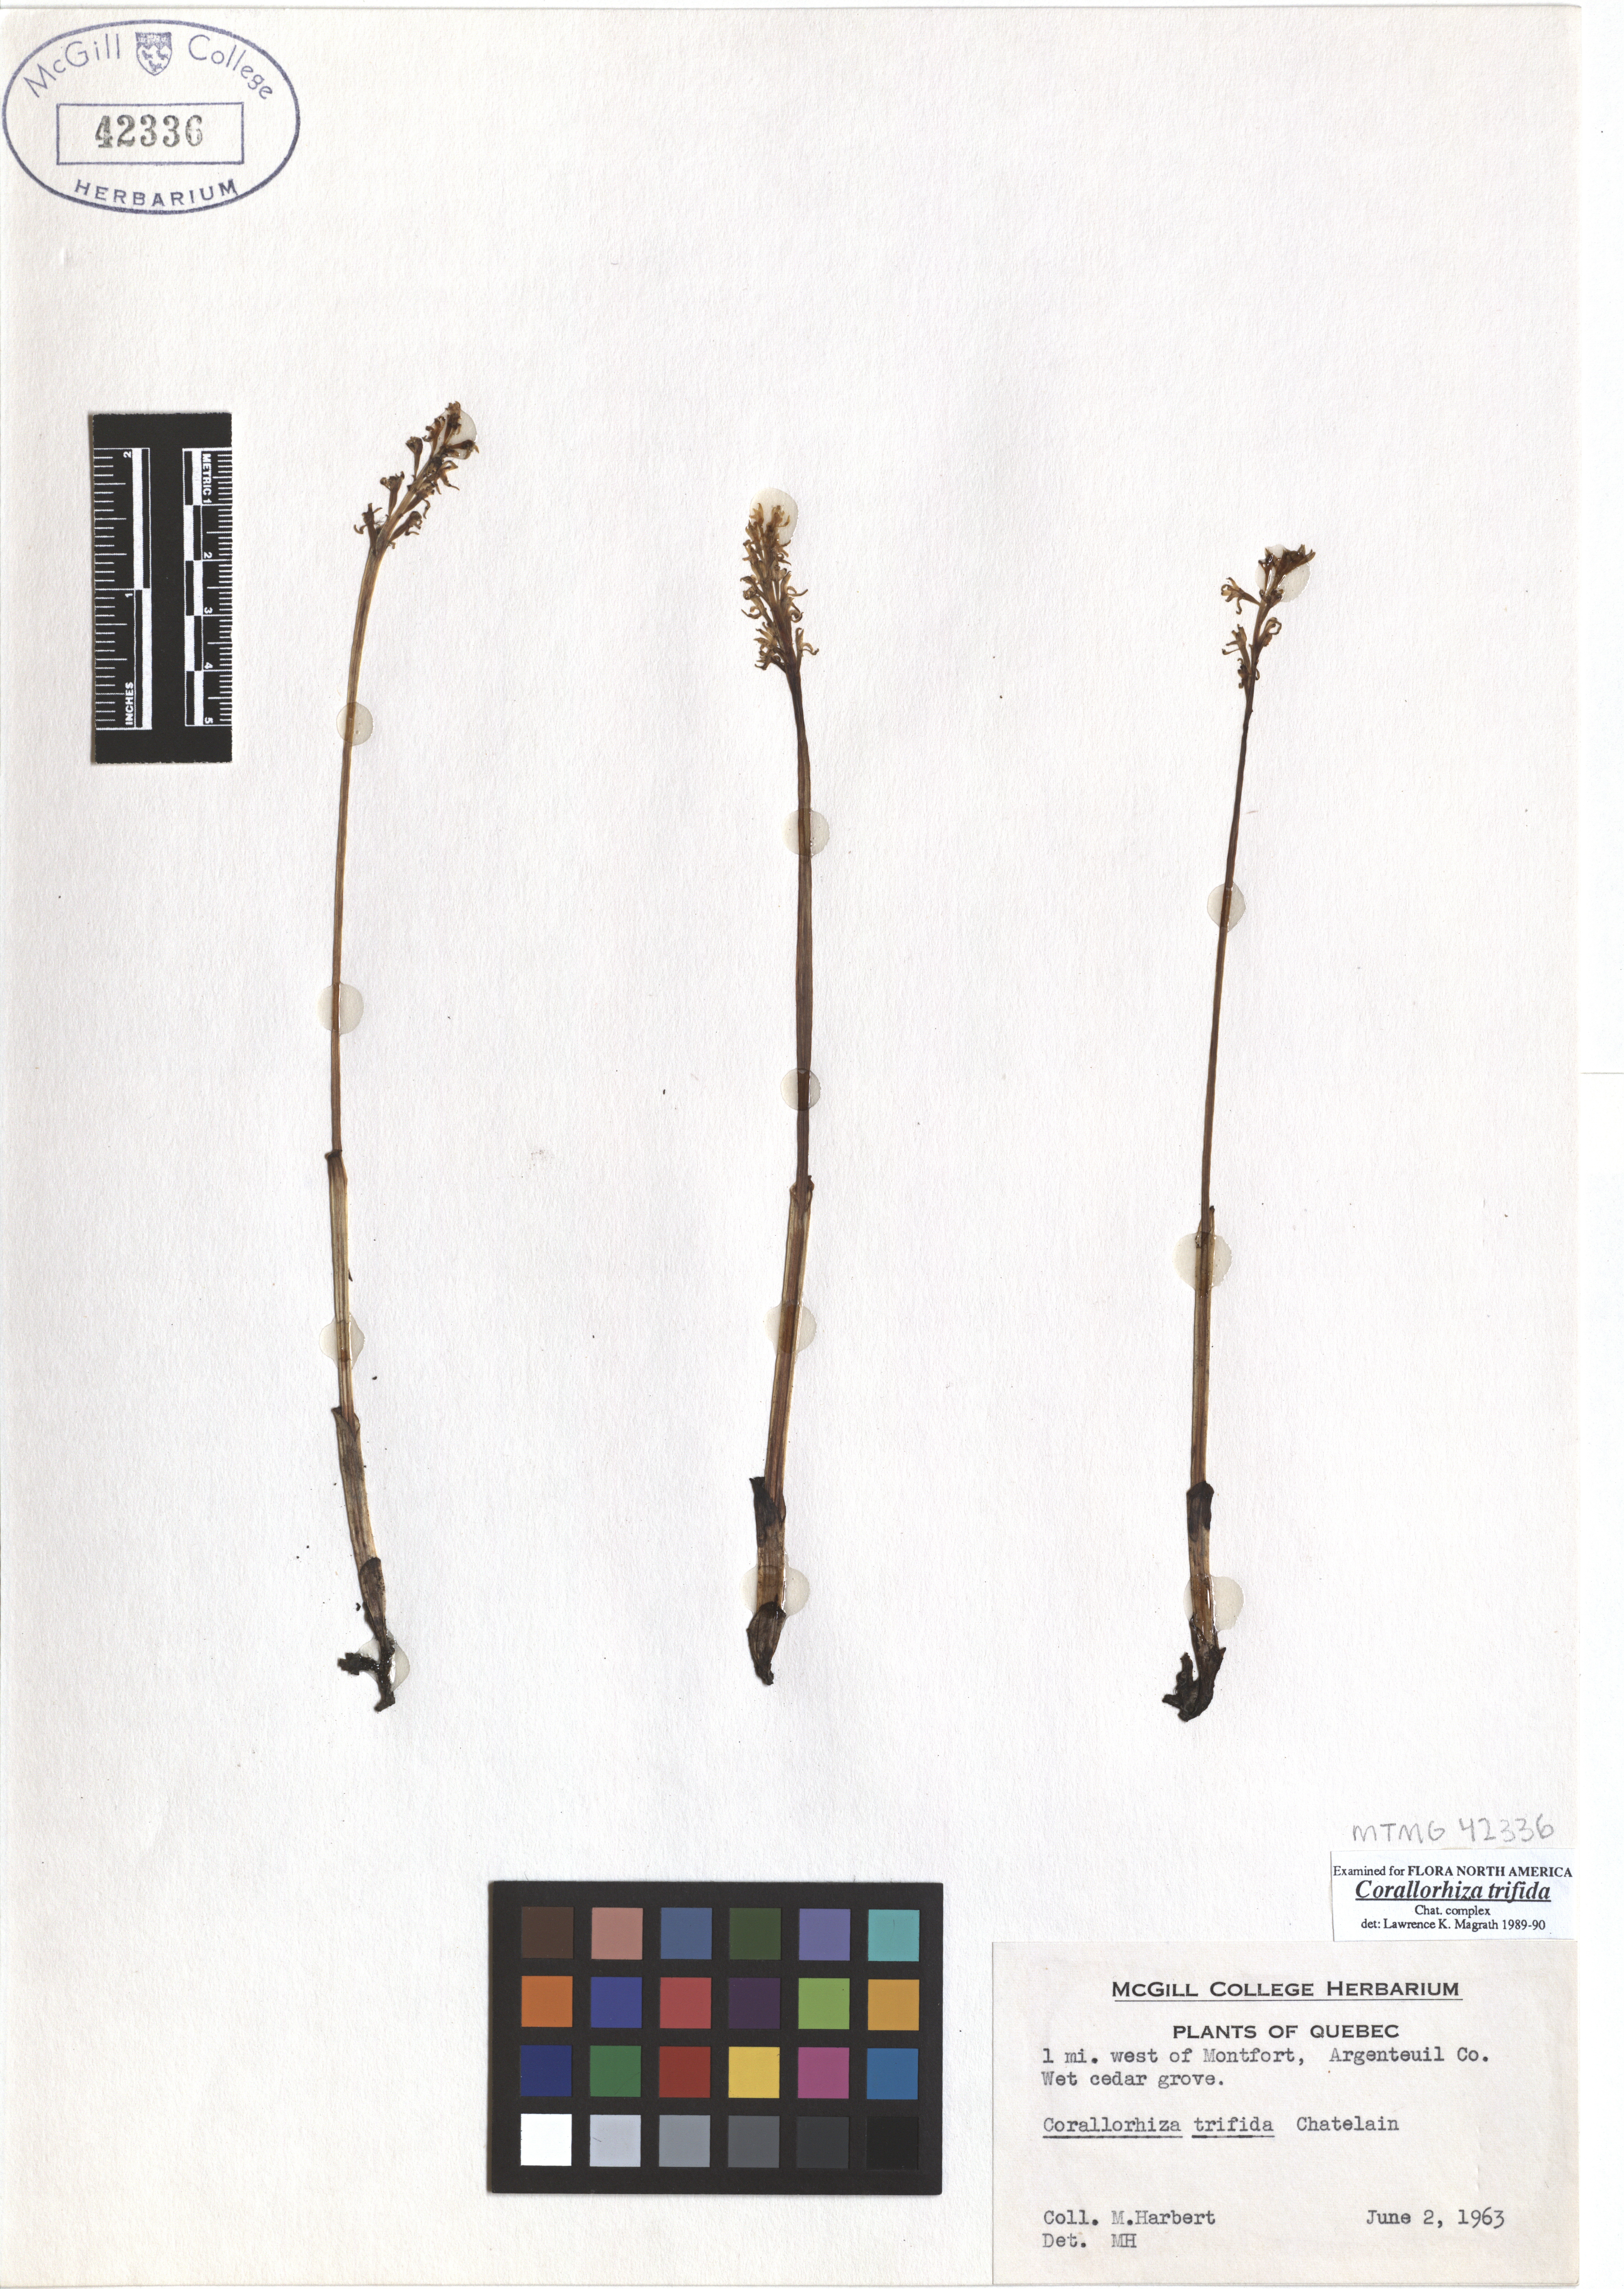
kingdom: Plantae
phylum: Tracheophyta
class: Liliopsida
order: Asparagales
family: Orchidaceae
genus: Corallorhiza
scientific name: Corallorhiza trifida
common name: Yellow coralroot
